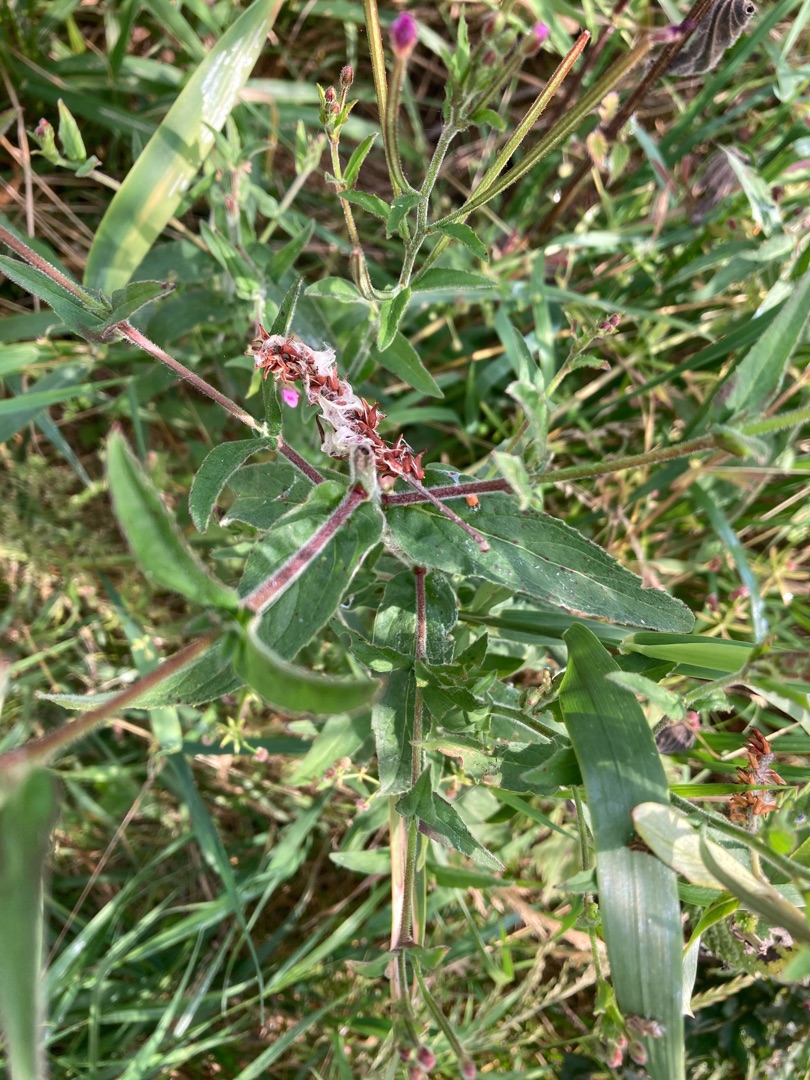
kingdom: Plantae
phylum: Tracheophyta
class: Magnoliopsida
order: Myrtales
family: Onagraceae
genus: Epilobium
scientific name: Epilobium ciliatum
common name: Kirtlet dueurt
